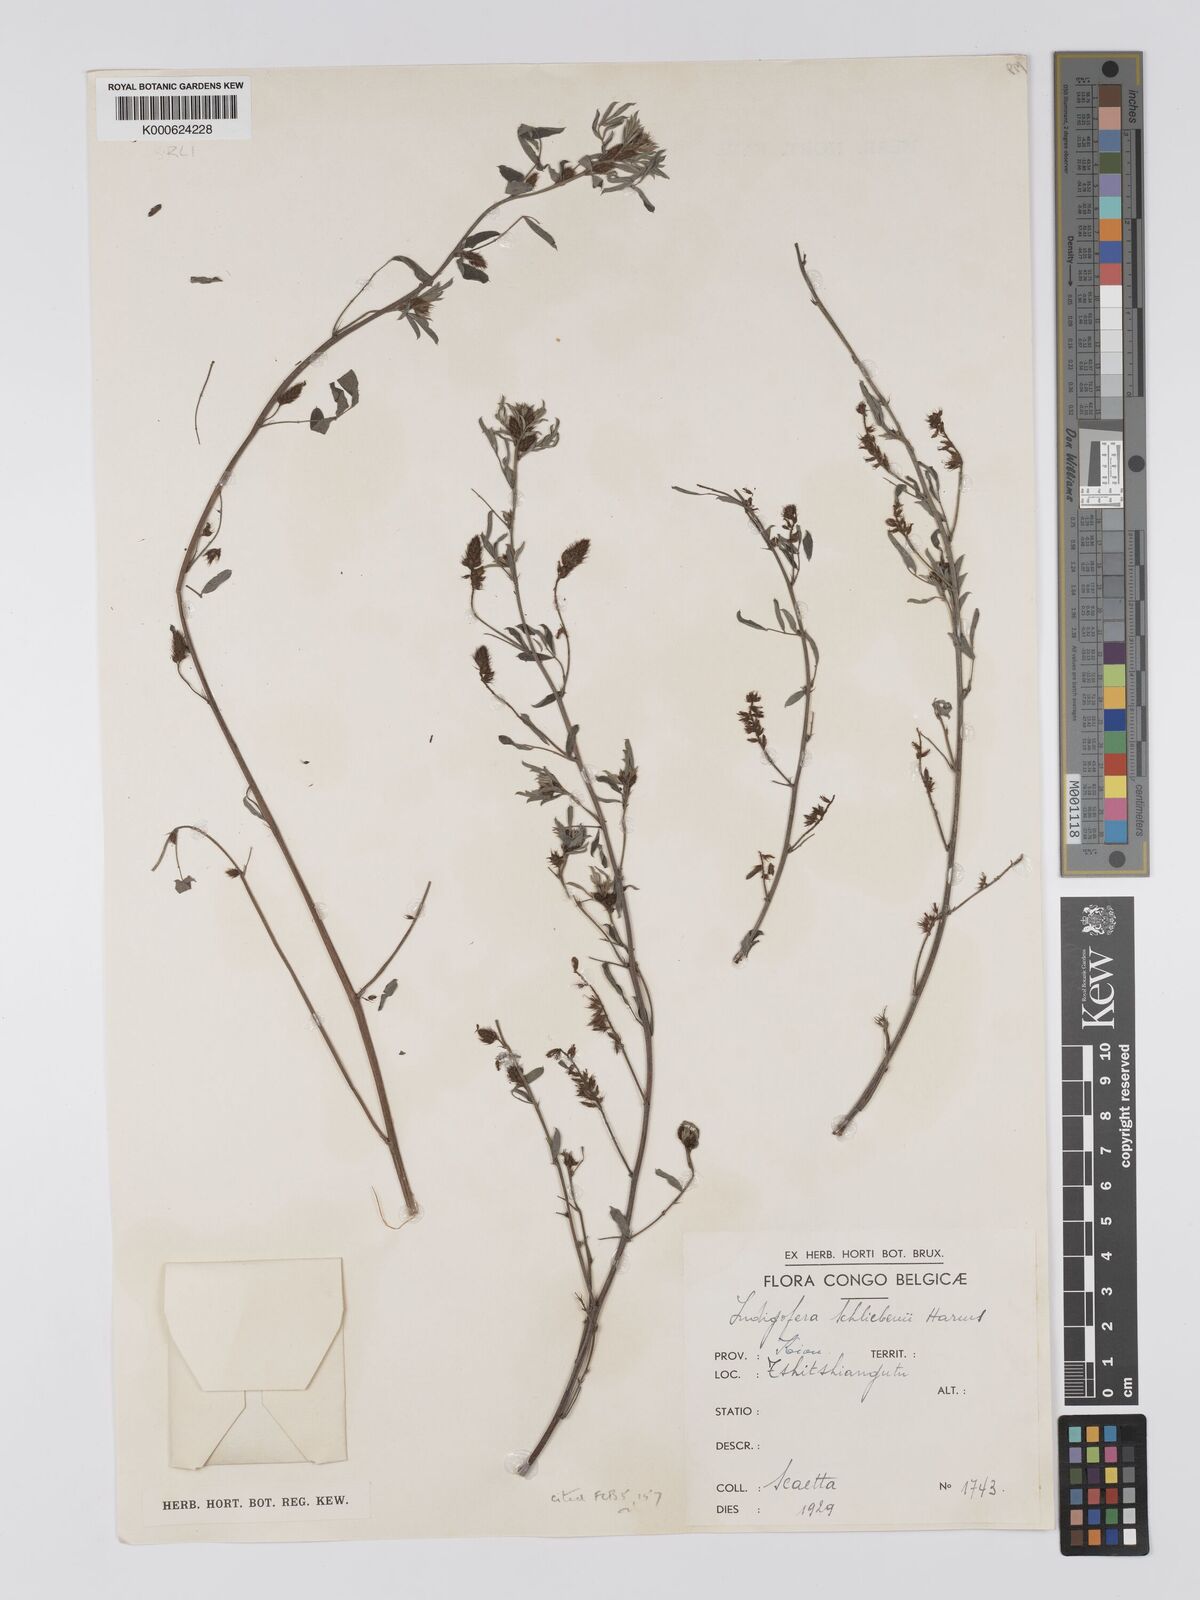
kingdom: Plantae
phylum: Tracheophyta
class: Magnoliopsida
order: Fabales
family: Fabaceae
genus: Indigofera
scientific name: Indigofera schliebenii
